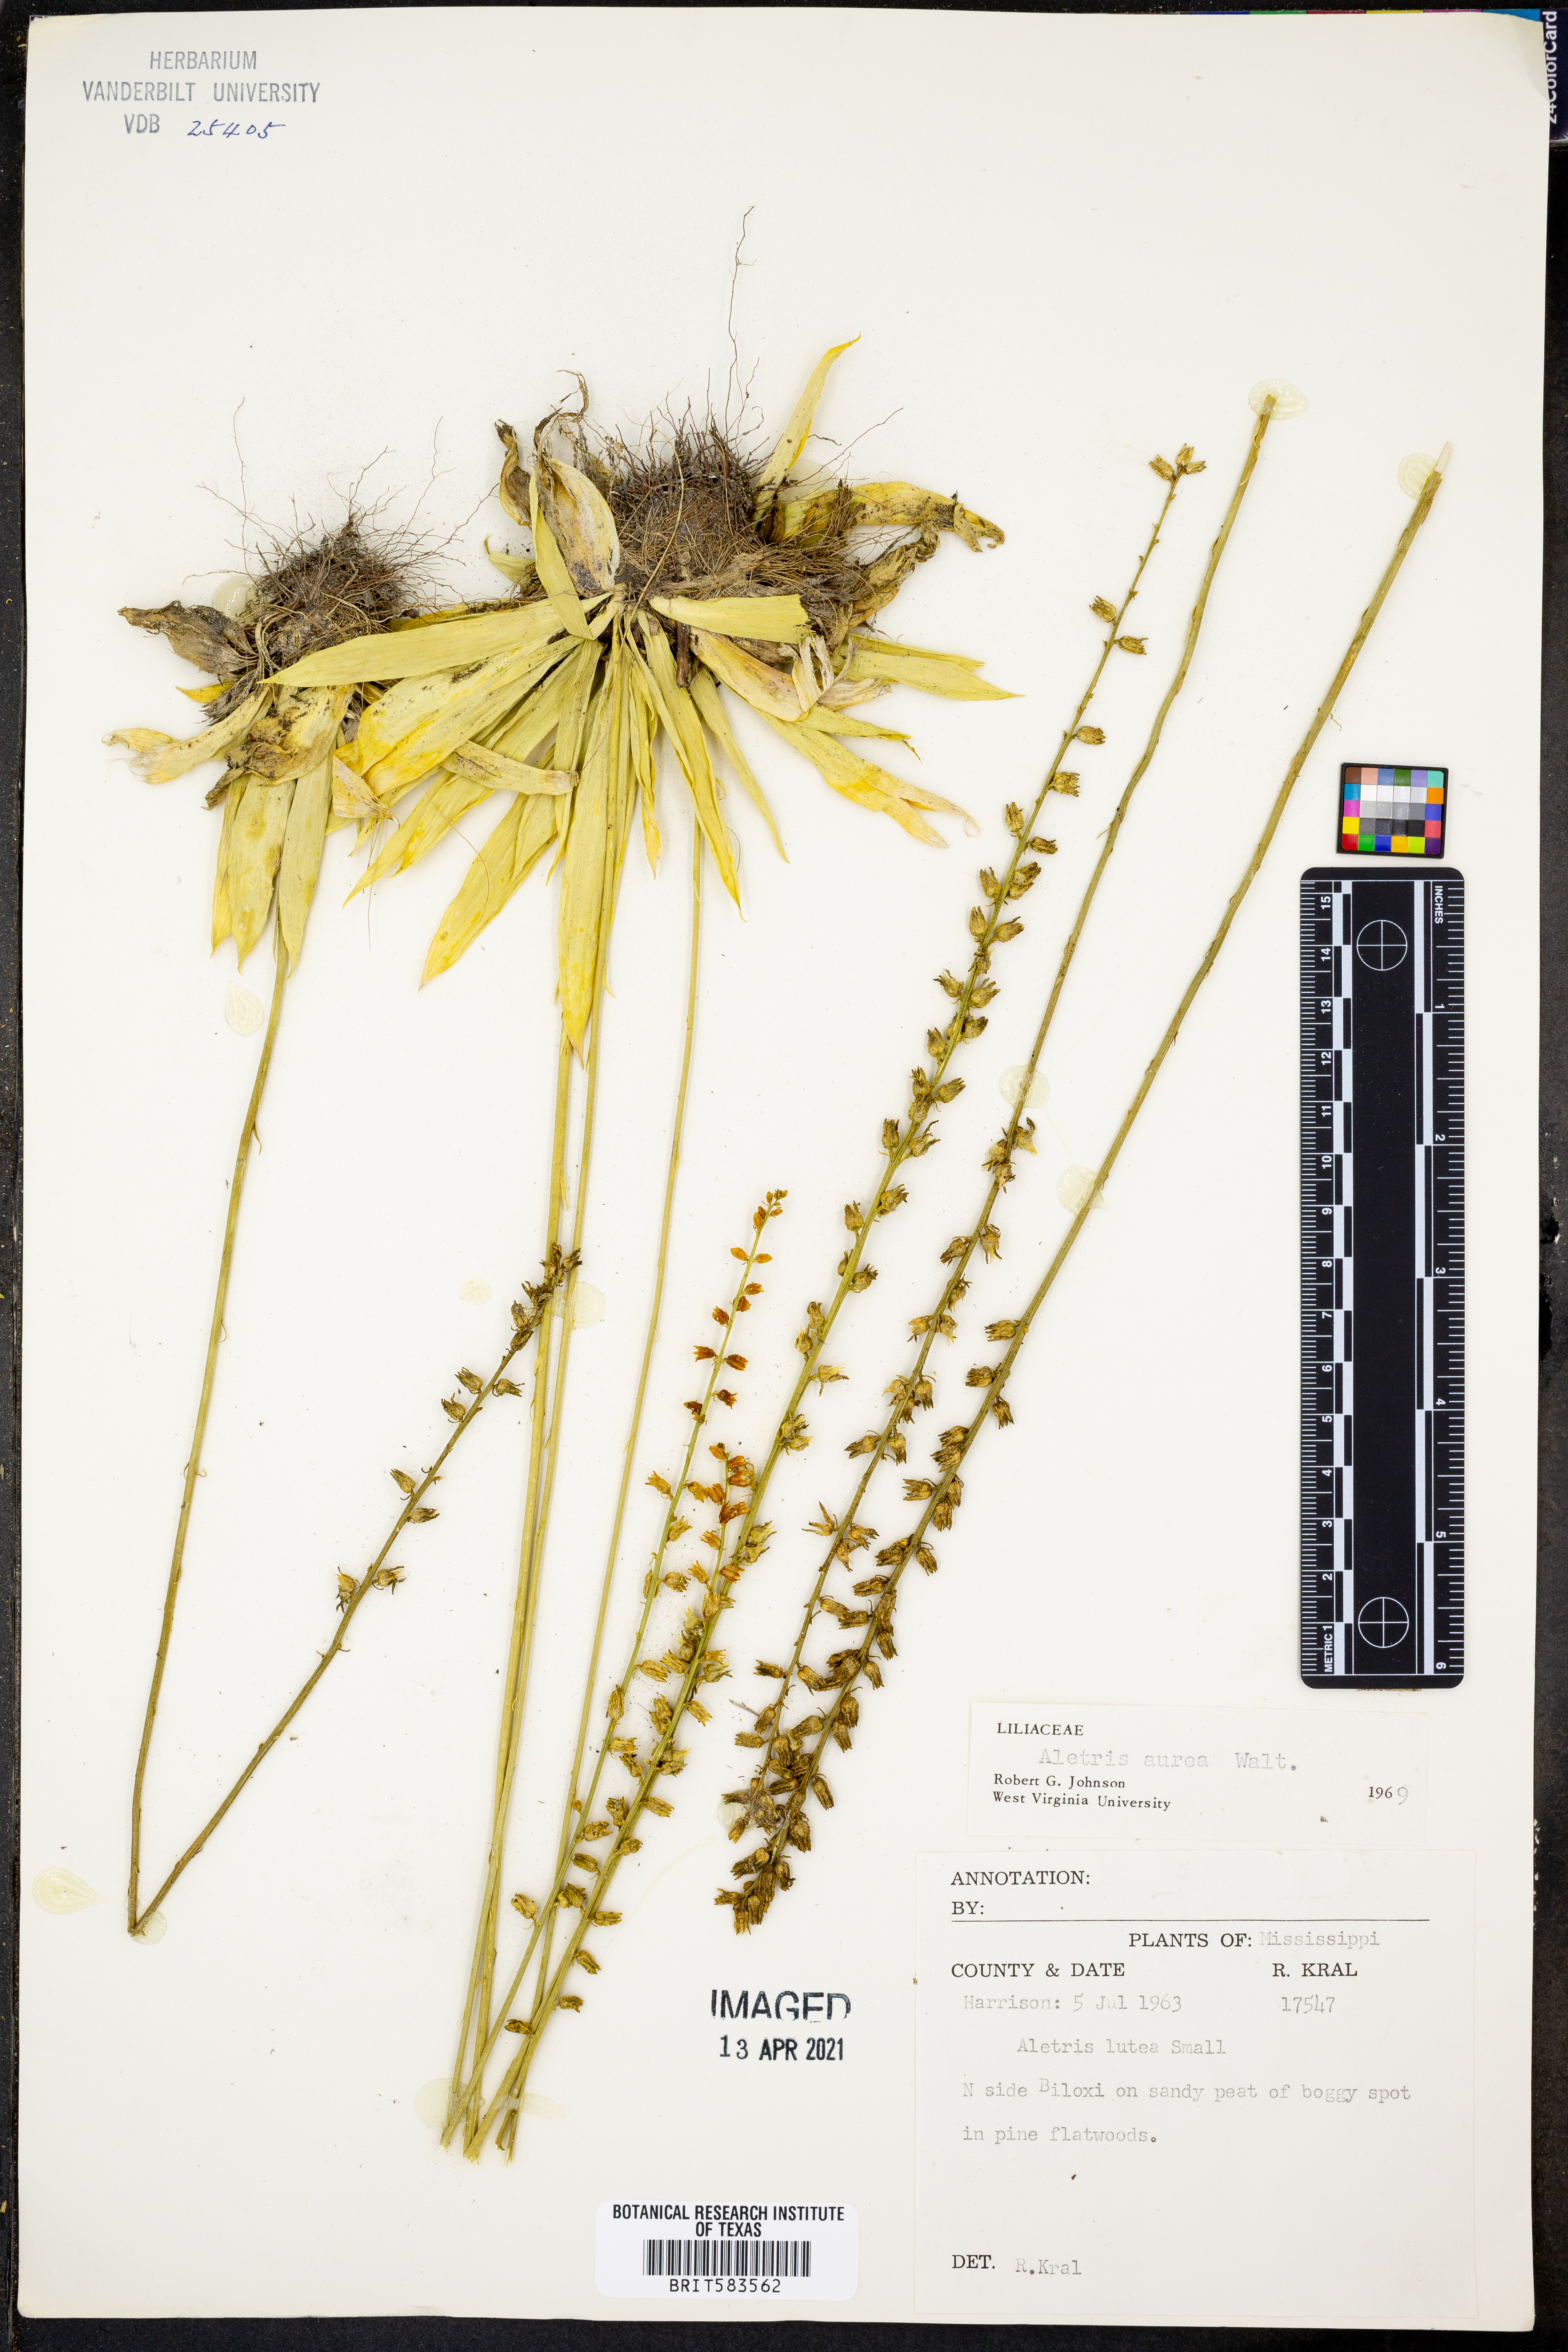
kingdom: Plantae
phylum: Tracheophyta
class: Liliopsida
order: Dioscoreales
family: Nartheciaceae
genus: Aletris
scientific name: Aletris lutea
